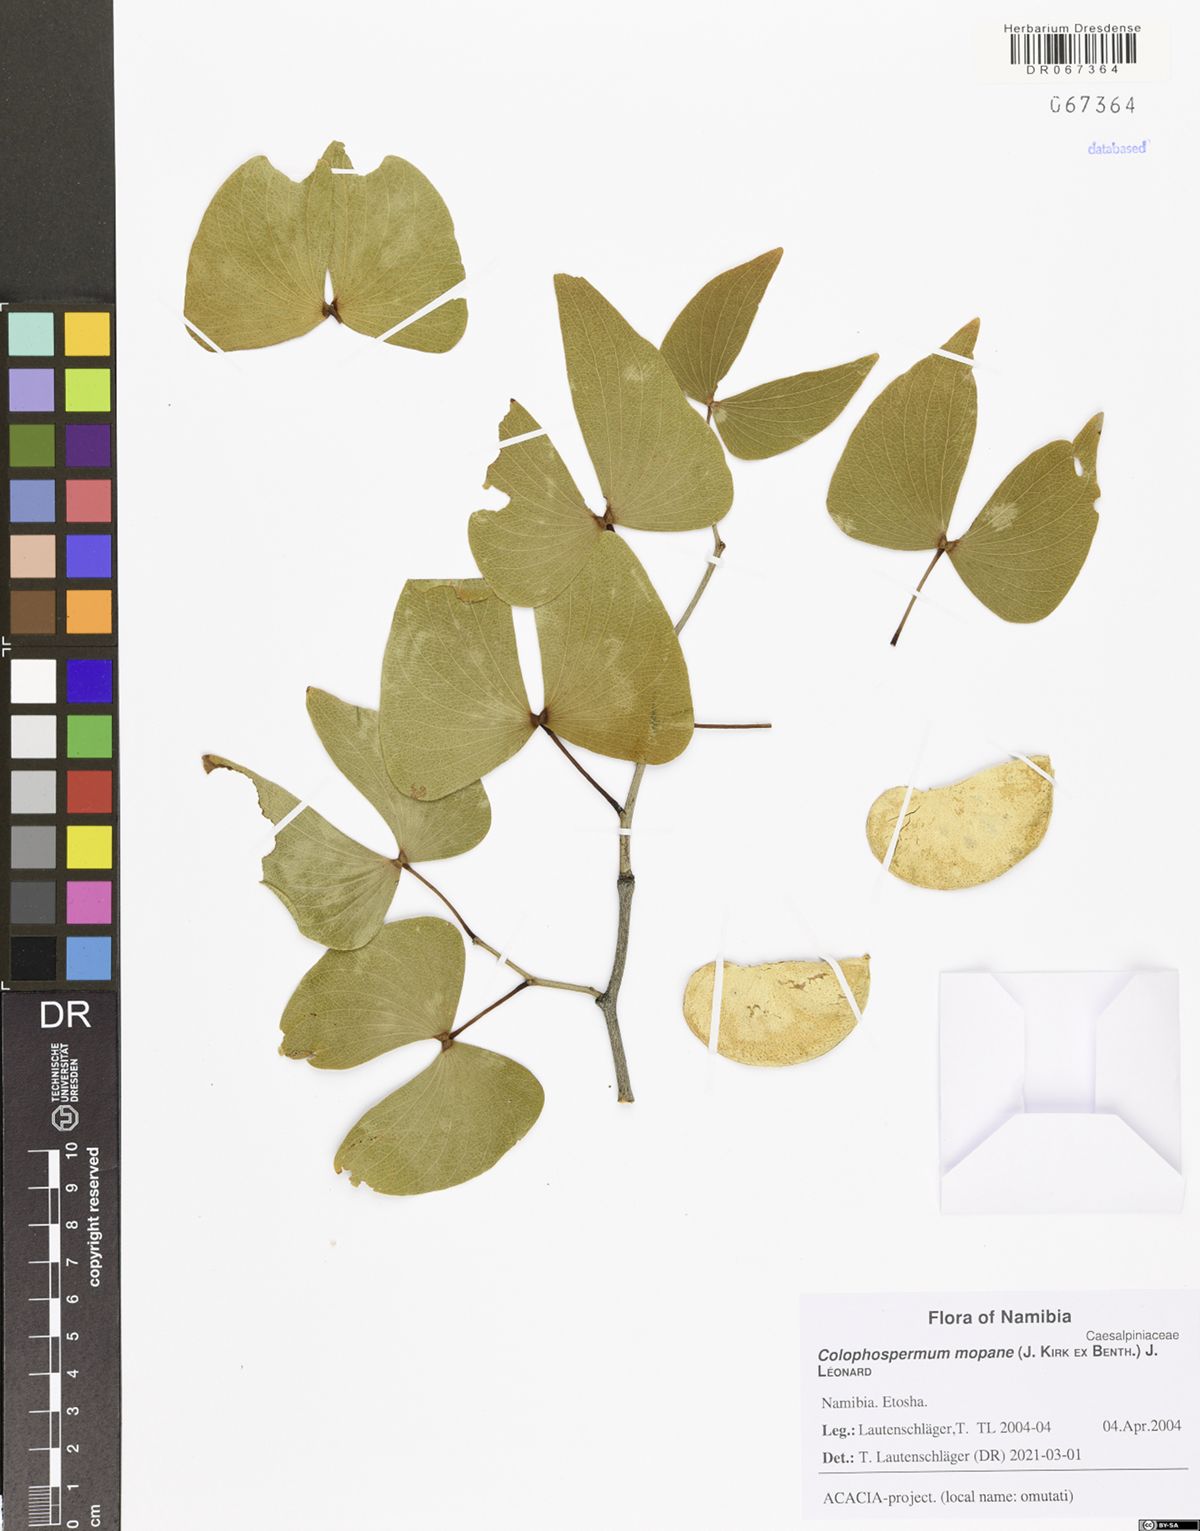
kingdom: Plantae
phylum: Tracheophyta
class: Magnoliopsida
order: Fabales
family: Fabaceae
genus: Colophospermum
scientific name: Colophospermum mopane
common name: Mopane
